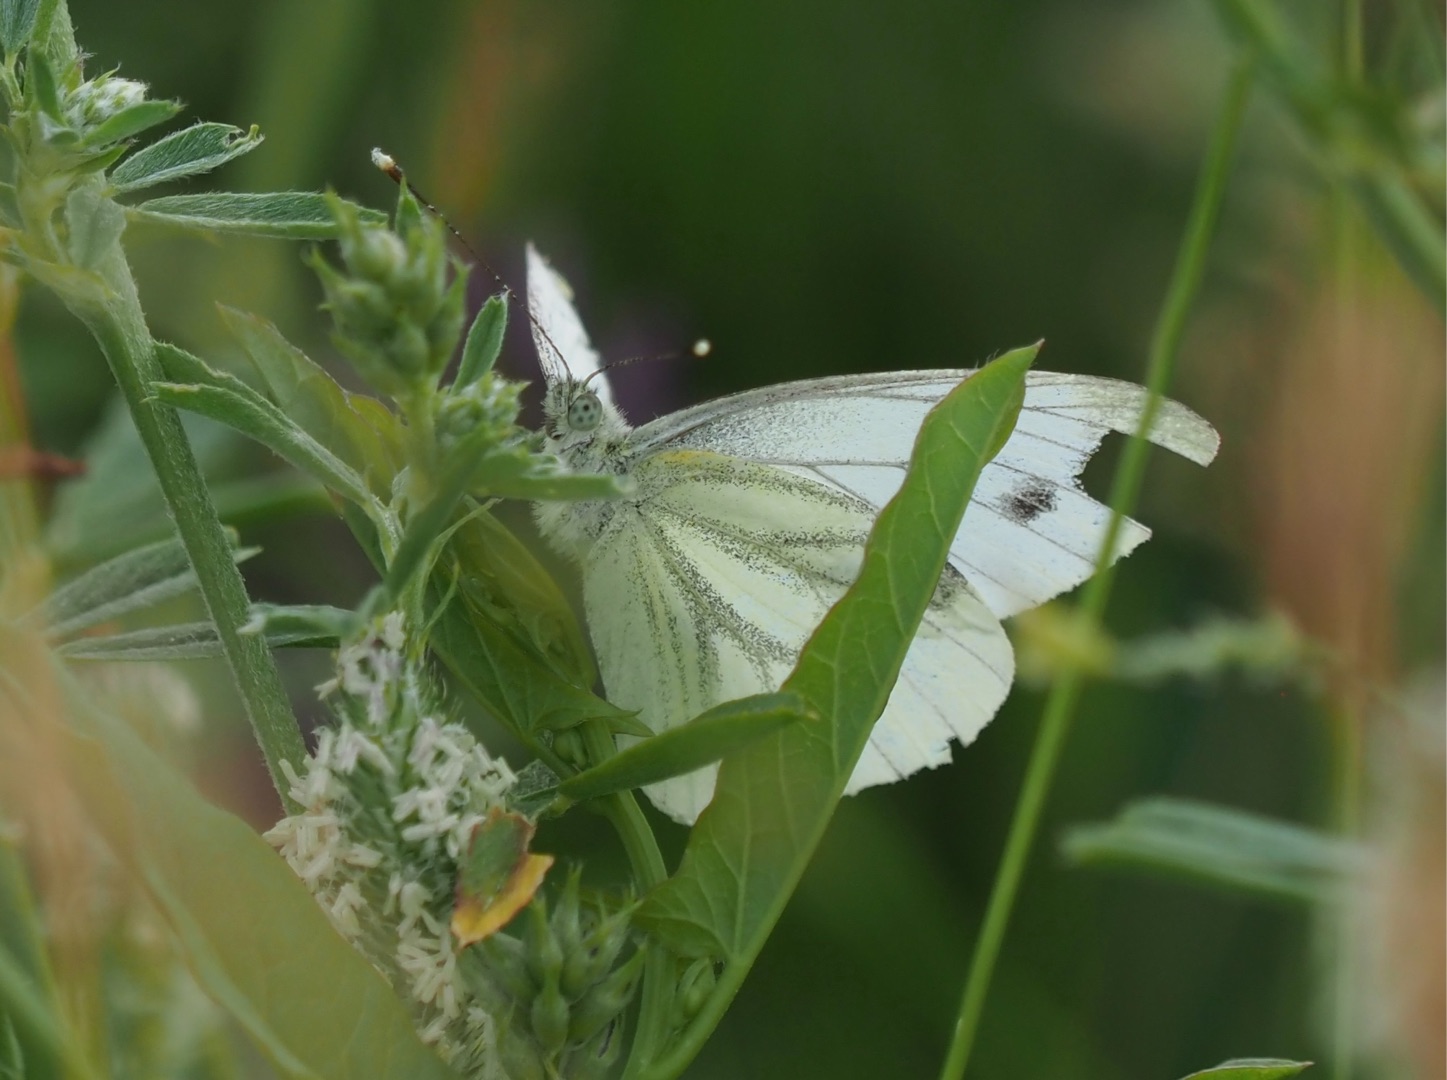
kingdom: Animalia
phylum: Arthropoda
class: Insecta
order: Lepidoptera
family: Pieridae
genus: Pieris
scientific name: Pieris napi
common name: Grønåret kålsommerfugl
